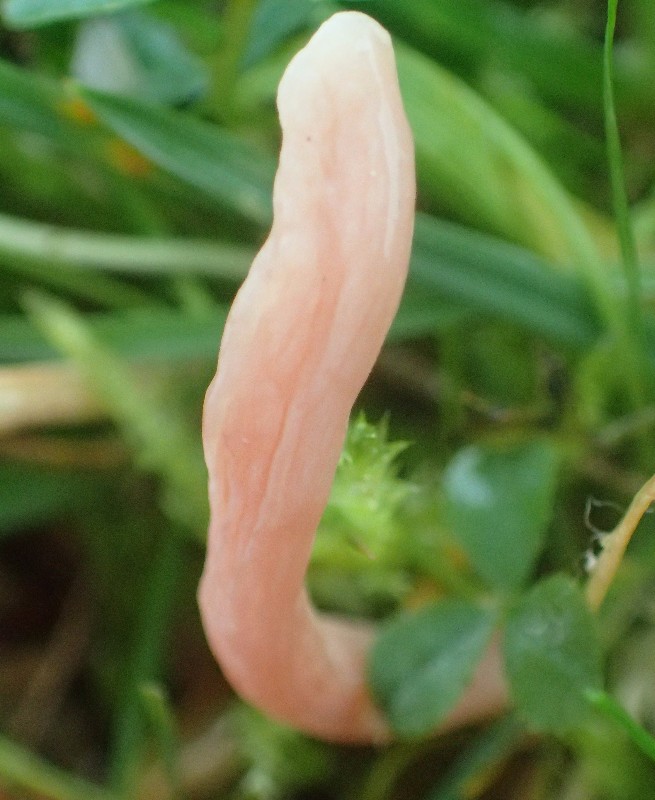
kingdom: Fungi
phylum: Basidiomycota
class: Agaricomycetes
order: Agaricales
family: Clavariaceae
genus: Clavaria
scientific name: Clavaria incarnata
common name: kødrød køllesvamp
